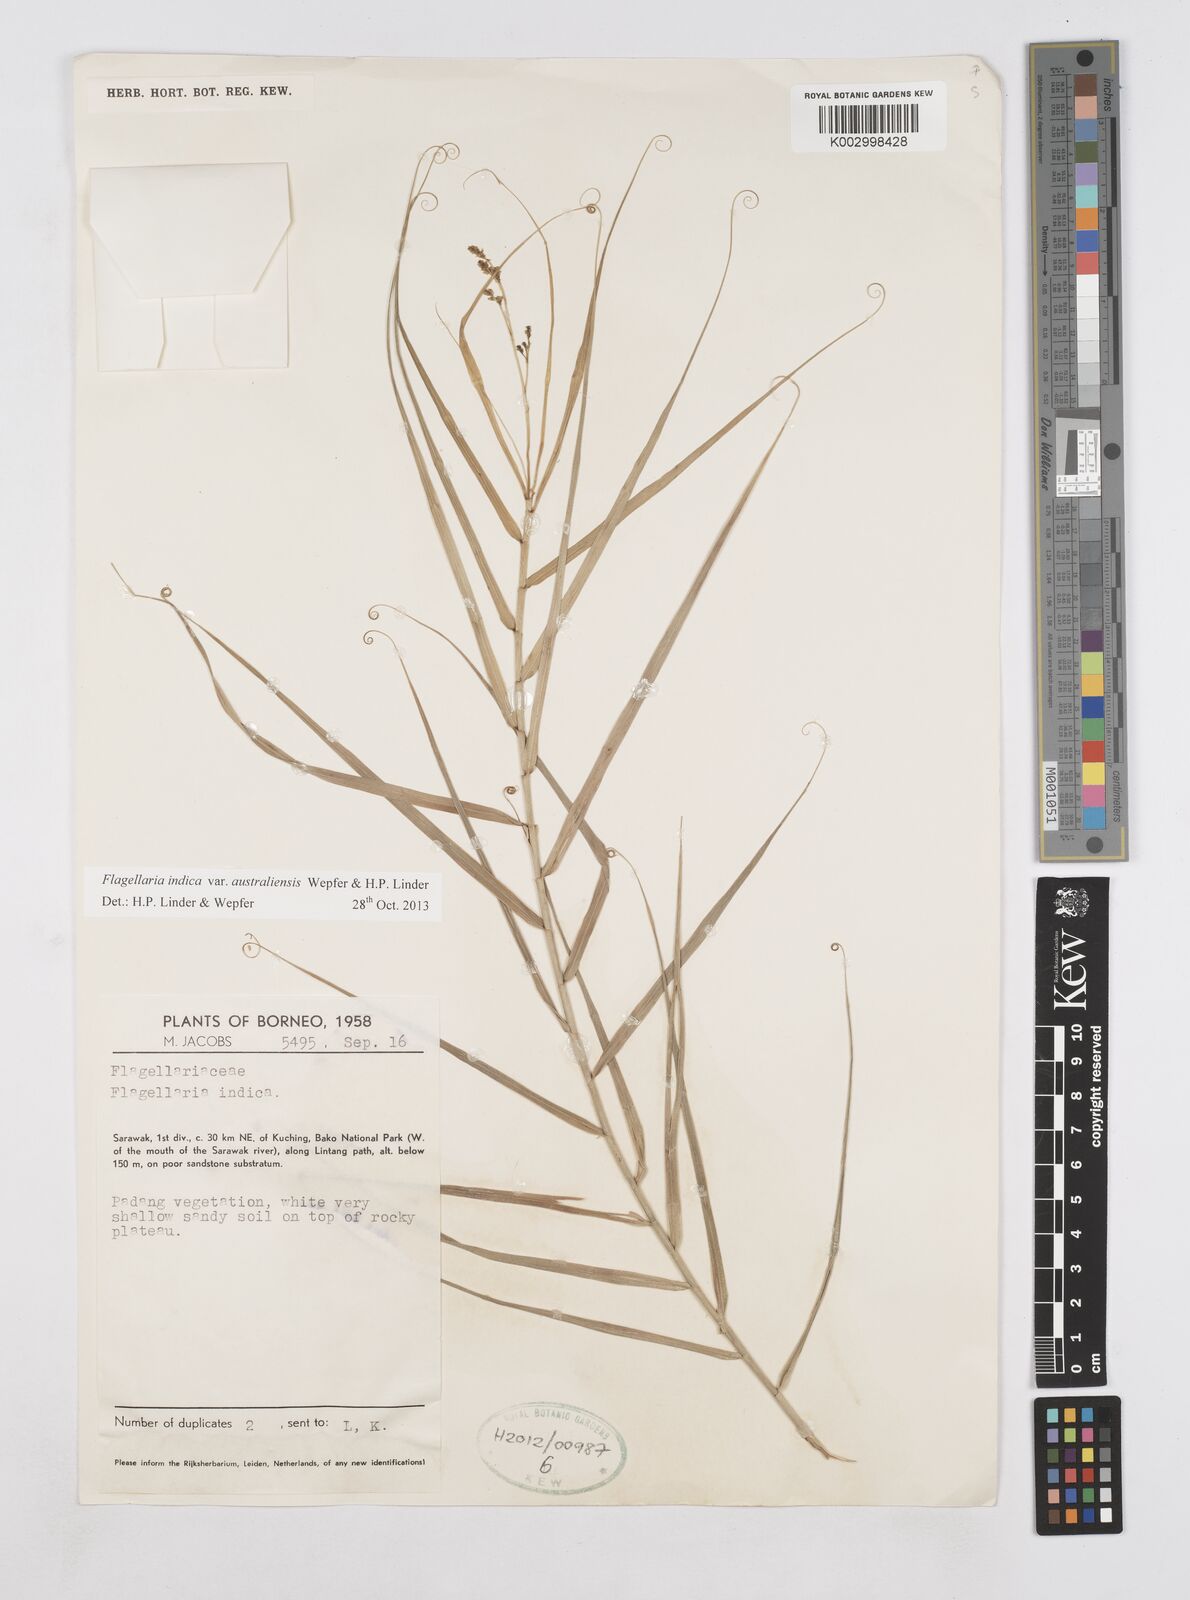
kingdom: Plantae
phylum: Tracheophyta
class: Liliopsida
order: Poales
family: Flagellariaceae
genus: Flagellaria
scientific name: Flagellaria indica
